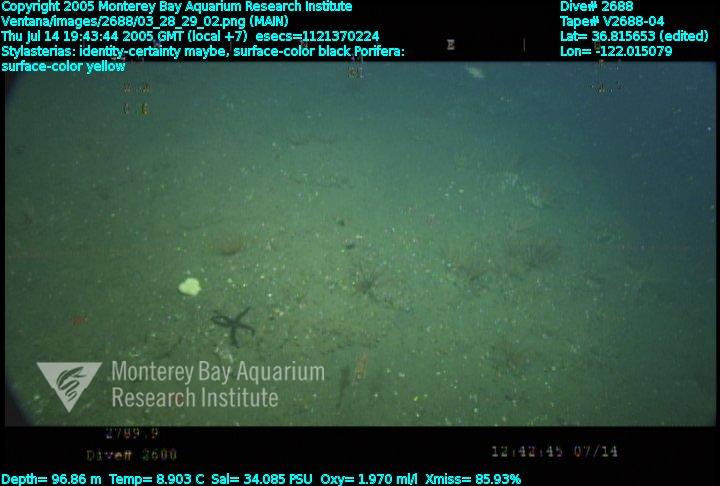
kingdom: Animalia
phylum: Porifera
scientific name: Porifera
